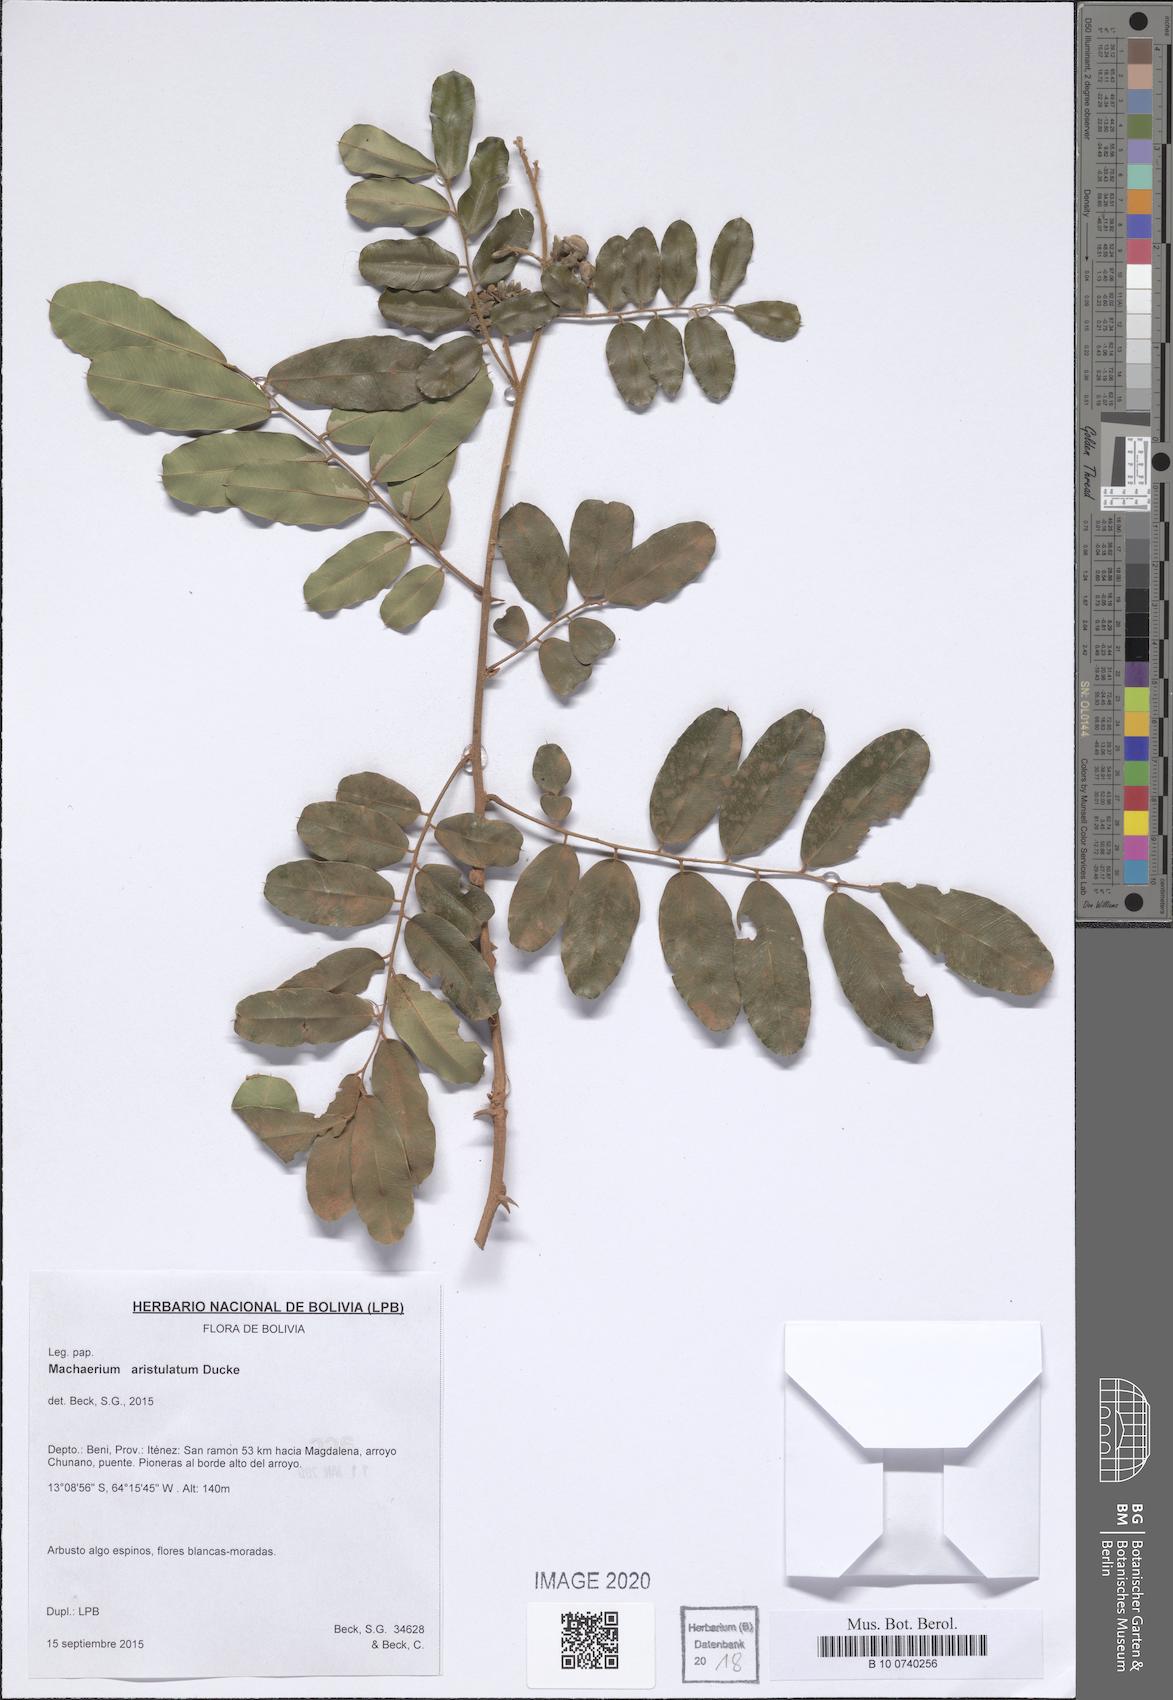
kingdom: Plantae
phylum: Tracheophyta
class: Magnoliopsida
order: Fabales
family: Fabaceae
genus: Machaerium
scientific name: Machaerium aristulatum
